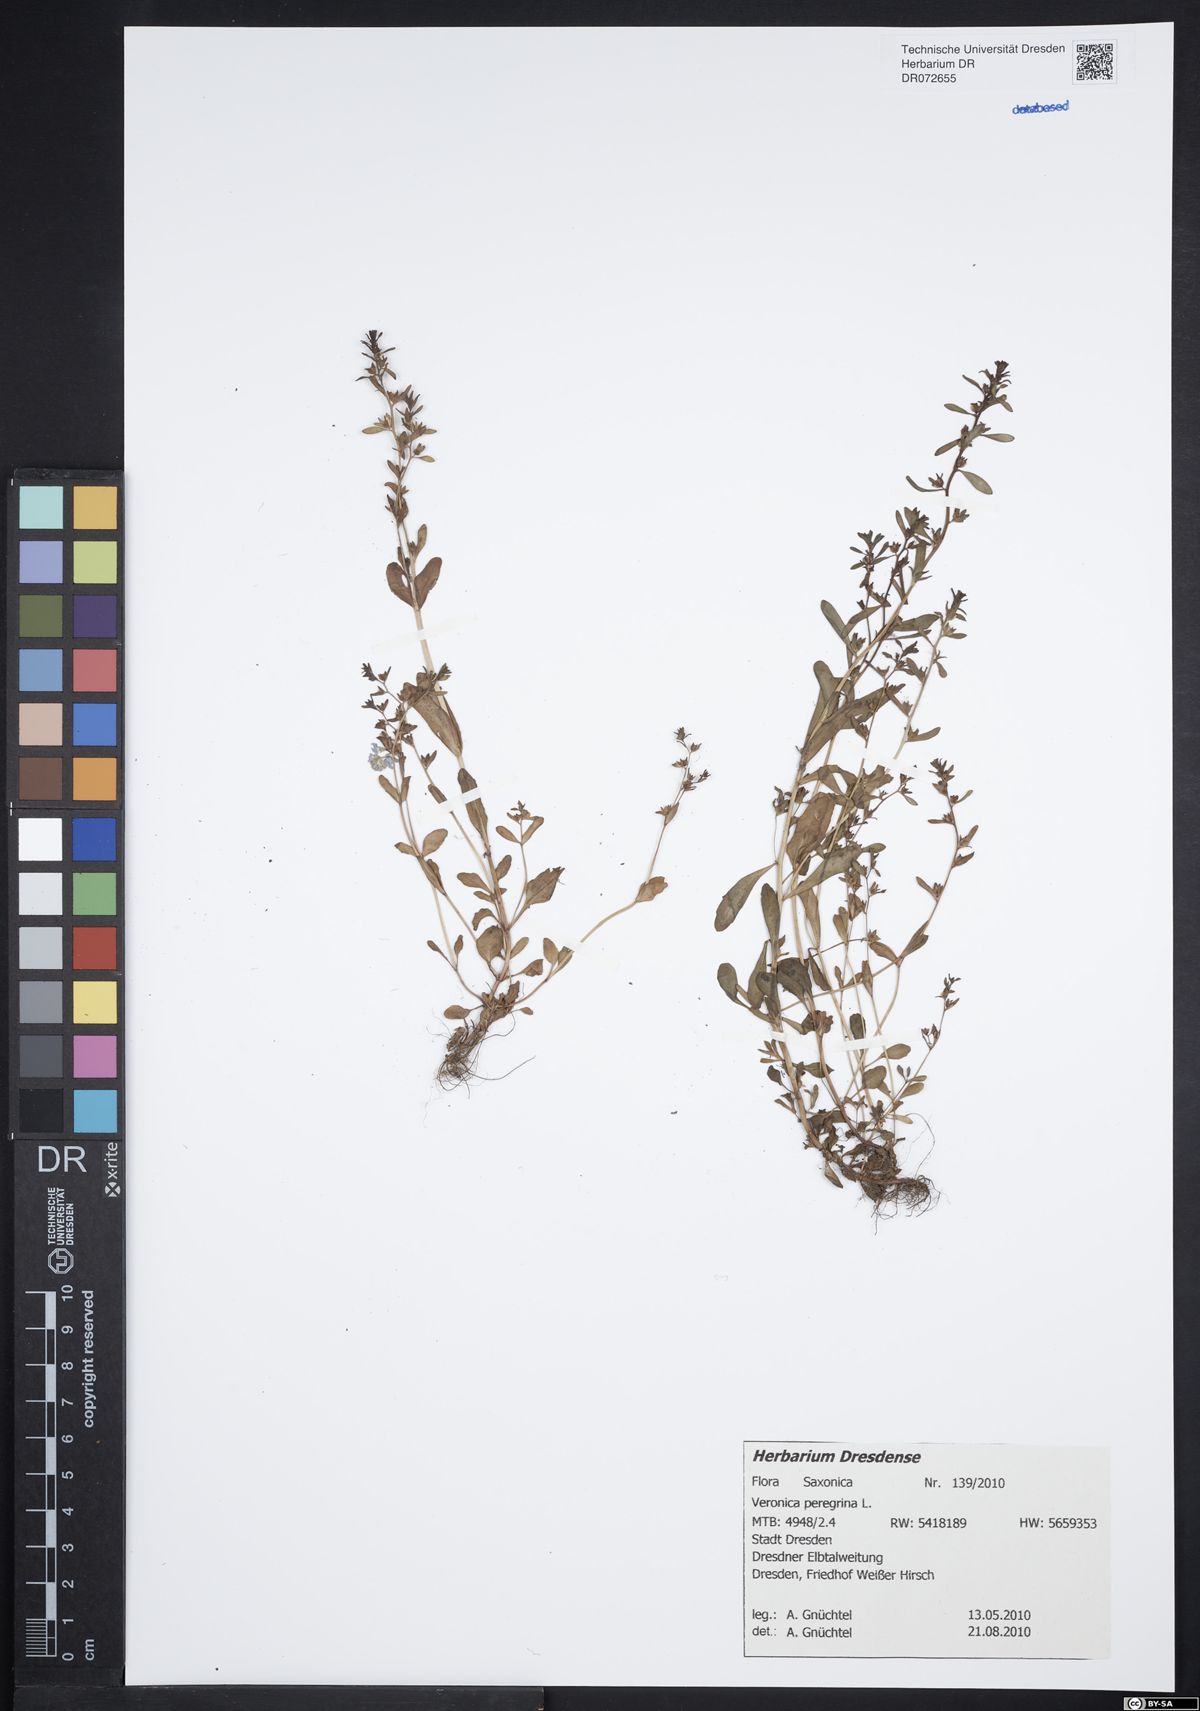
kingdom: Plantae
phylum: Tracheophyta
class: Magnoliopsida
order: Lamiales
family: Plantaginaceae
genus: Veronica
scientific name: Veronica peregrina
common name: Neckweed
